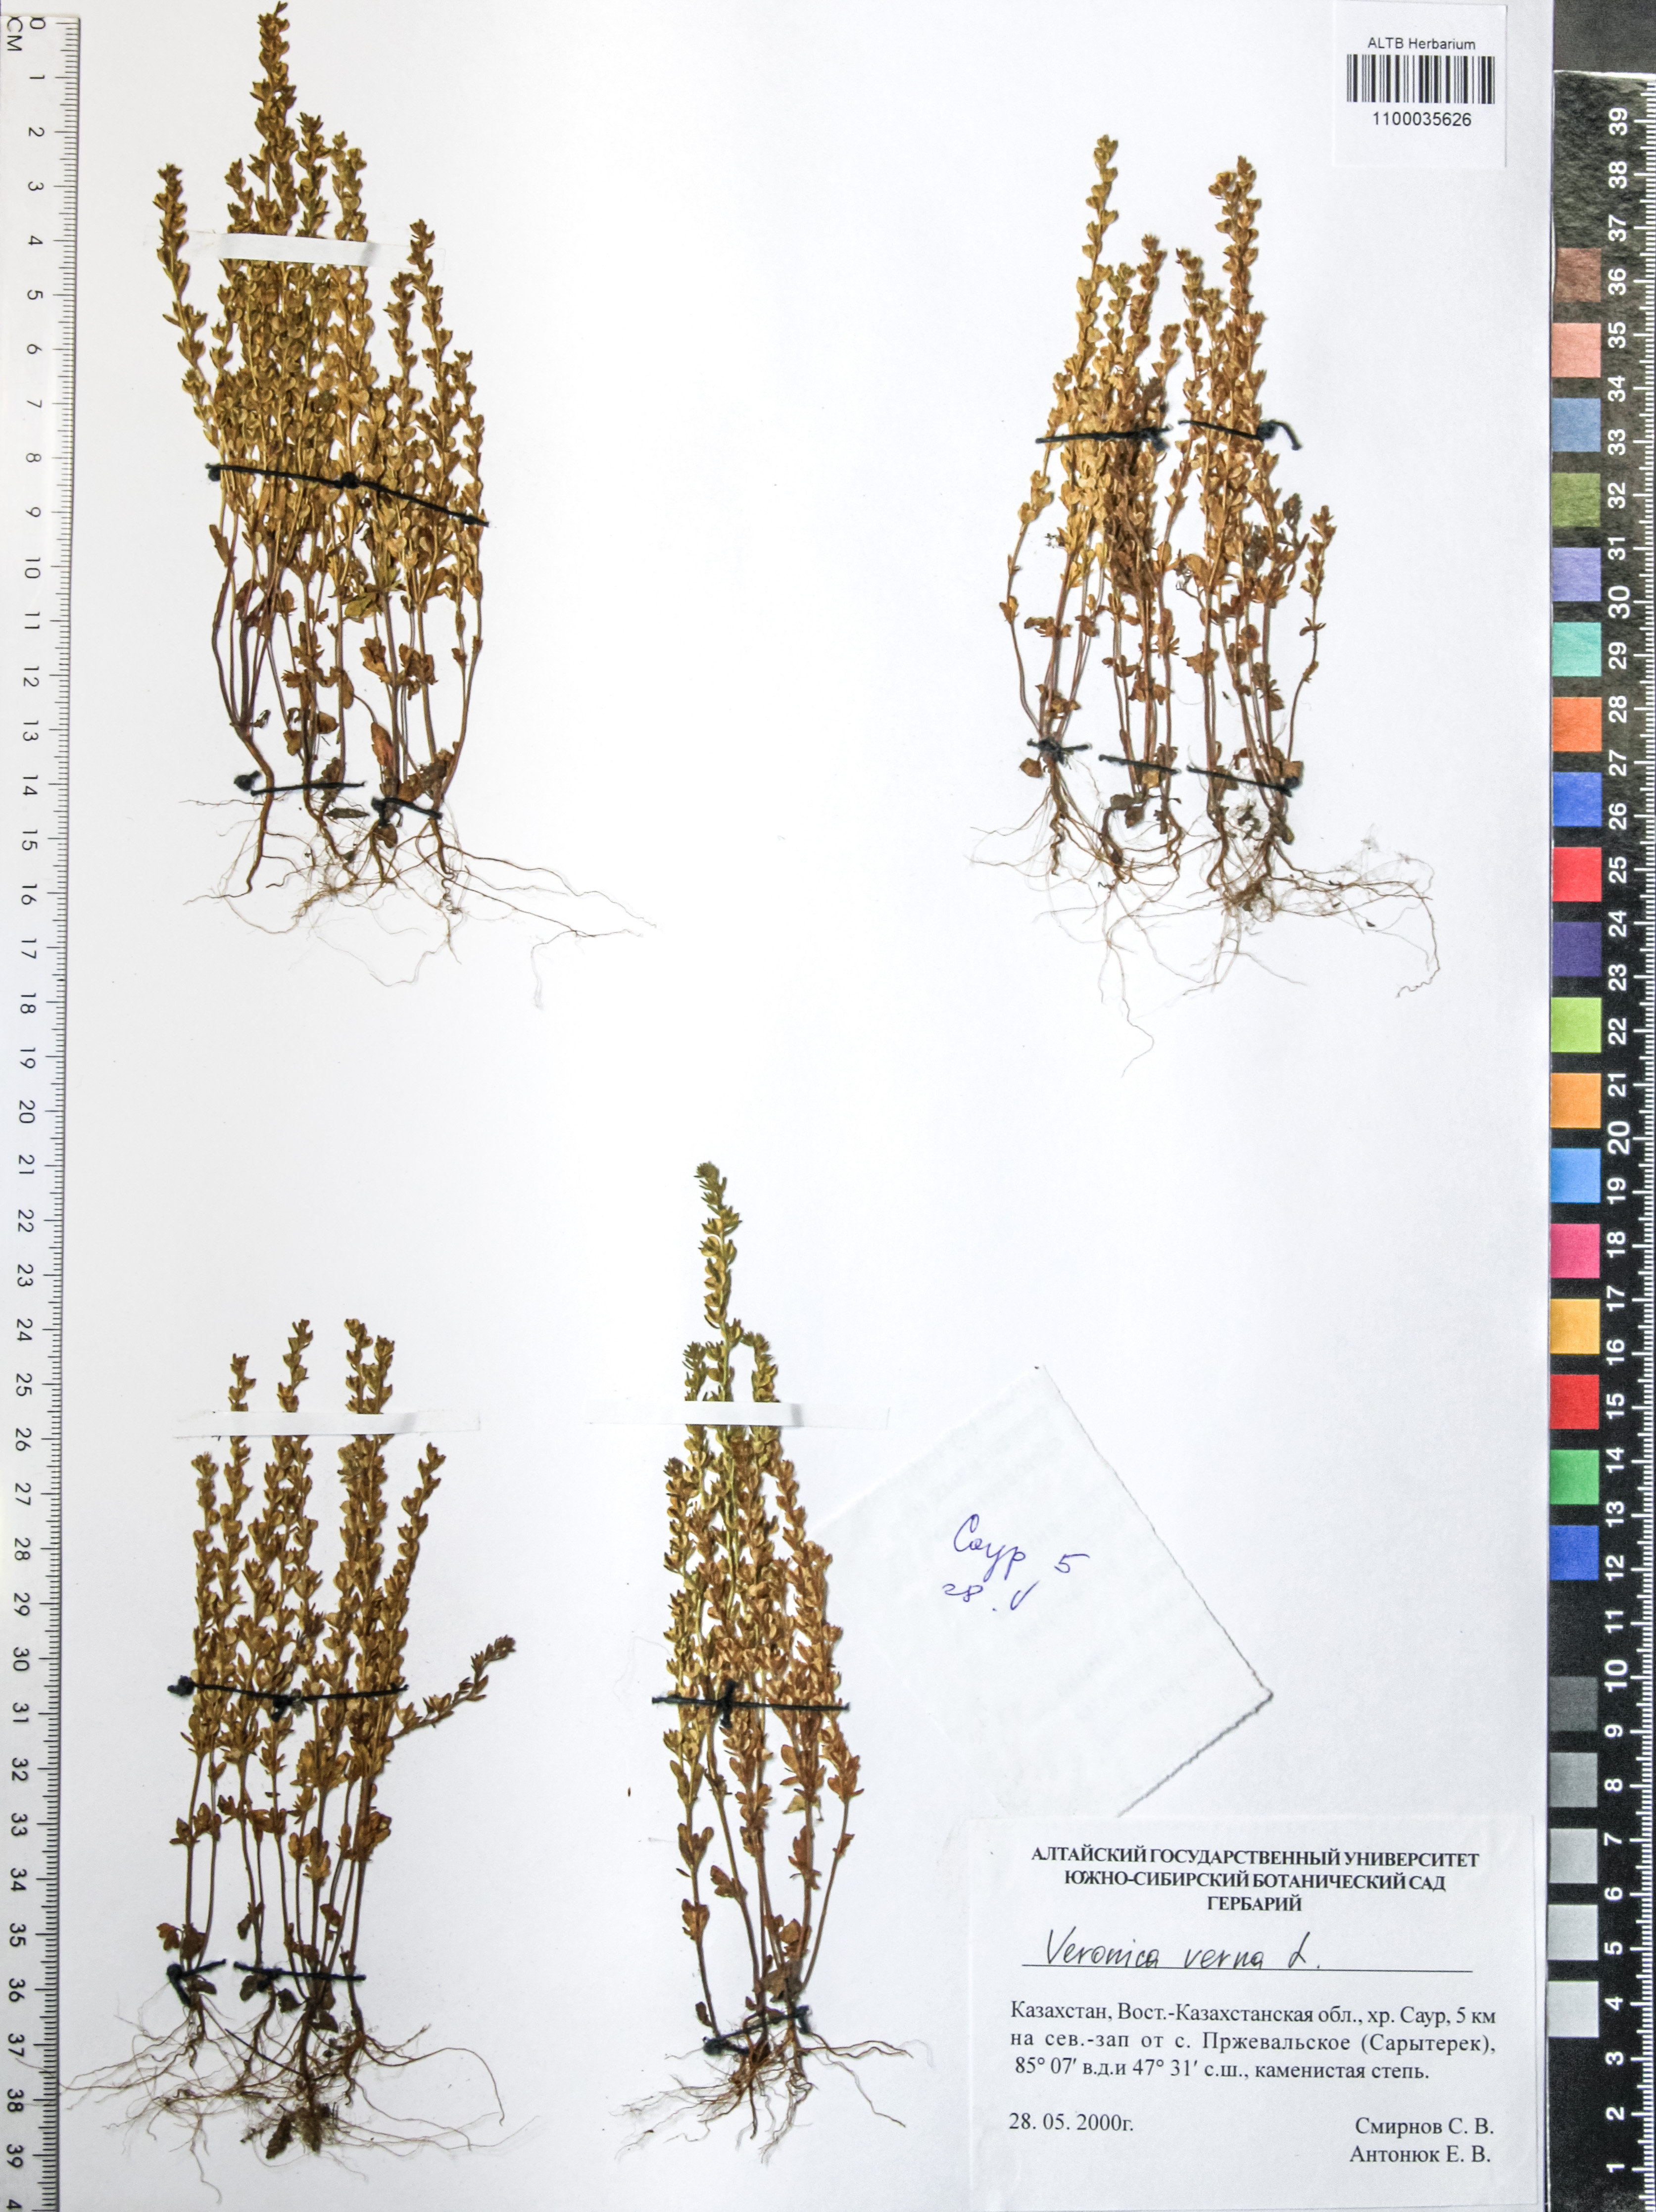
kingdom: Plantae
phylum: Tracheophyta
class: Magnoliopsida
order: Lamiales
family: Plantaginaceae
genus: Veronica
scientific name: Veronica verna
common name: Spring speedwell
